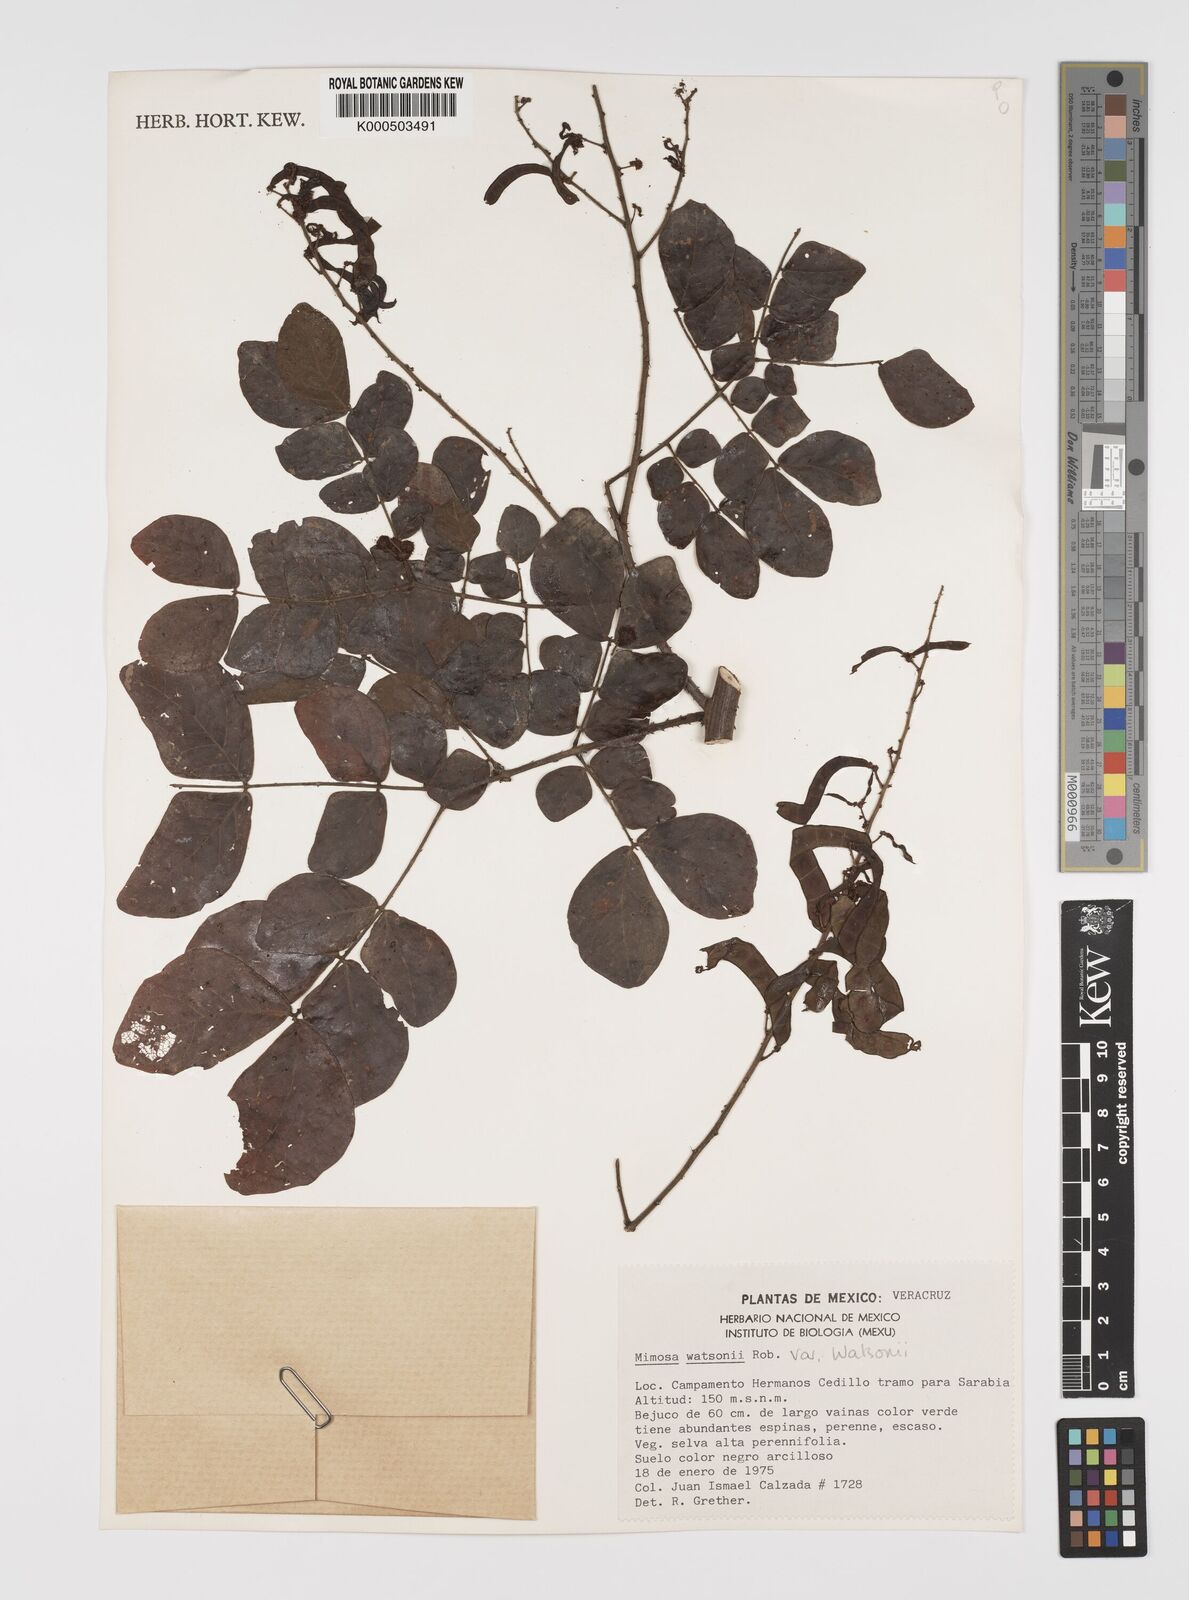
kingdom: Plantae
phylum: Tracheophyta
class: Magnoliopsida
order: Fabales
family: Fabaceae
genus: Mimosa
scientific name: Mimosa watsonii
